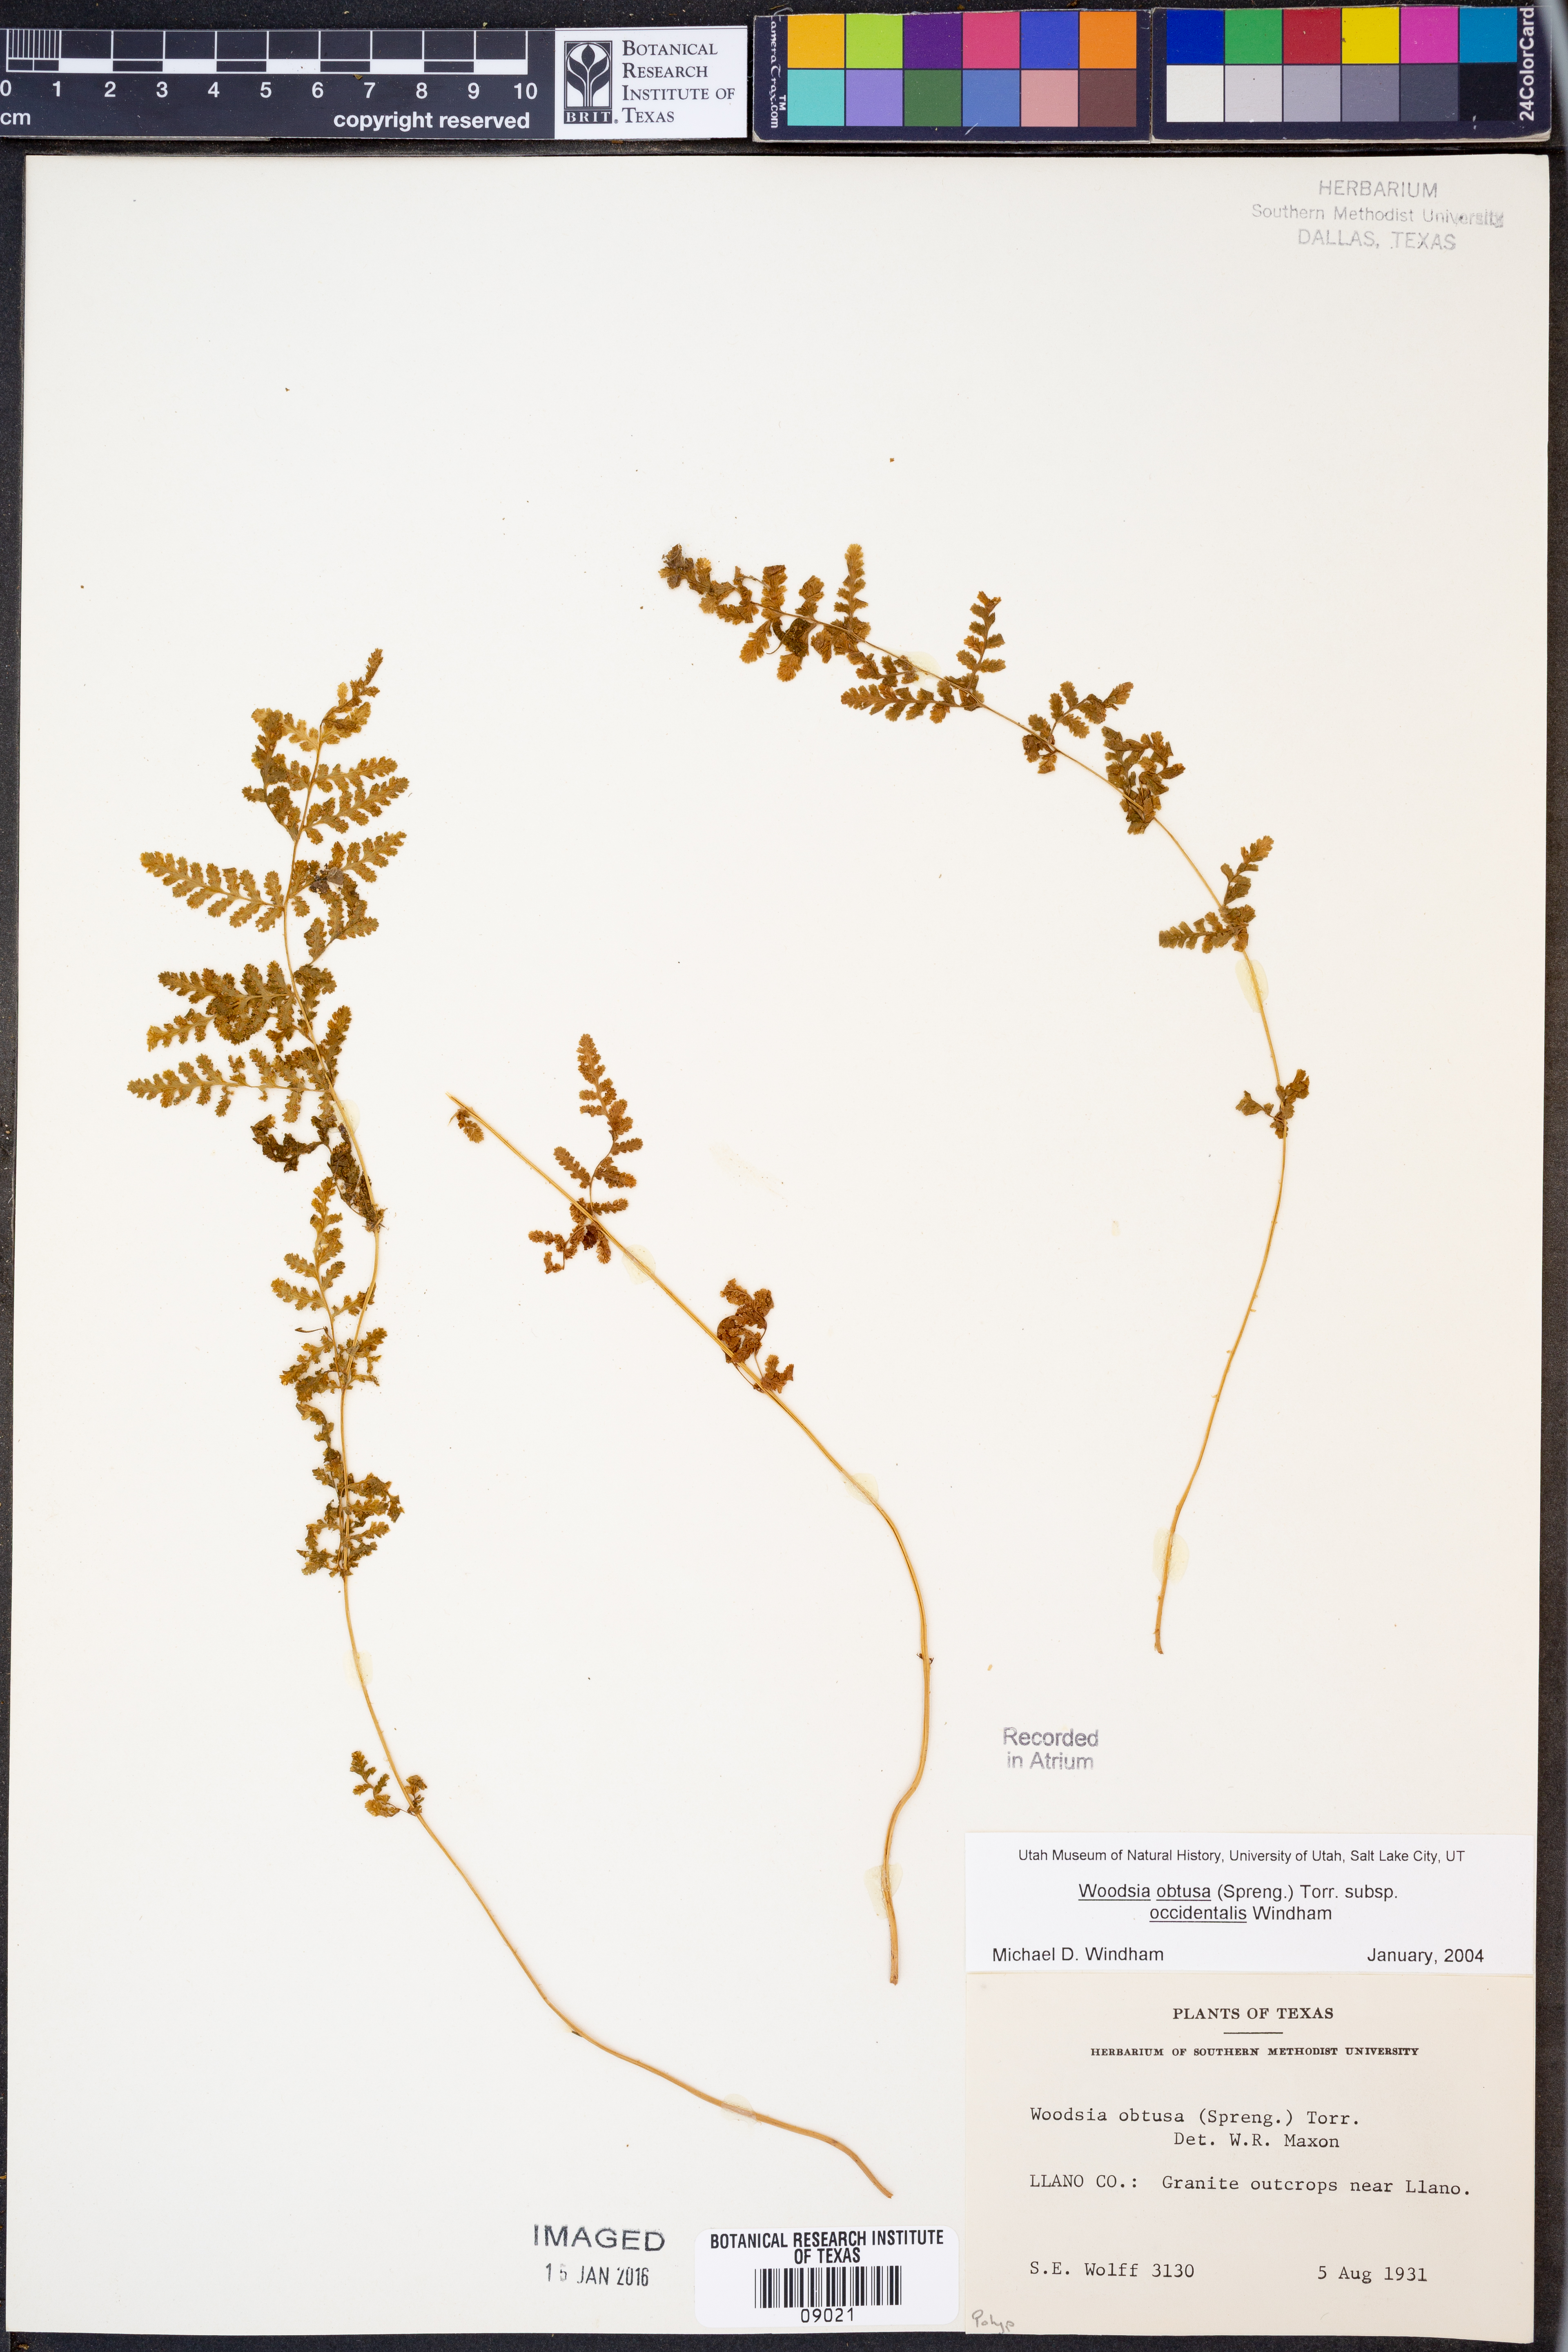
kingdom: Plantae
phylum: Tracheophyta
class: Polypodiopsida
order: Polypodiales
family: Woodsiaceae
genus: Physematium
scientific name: Physematium obtusum
